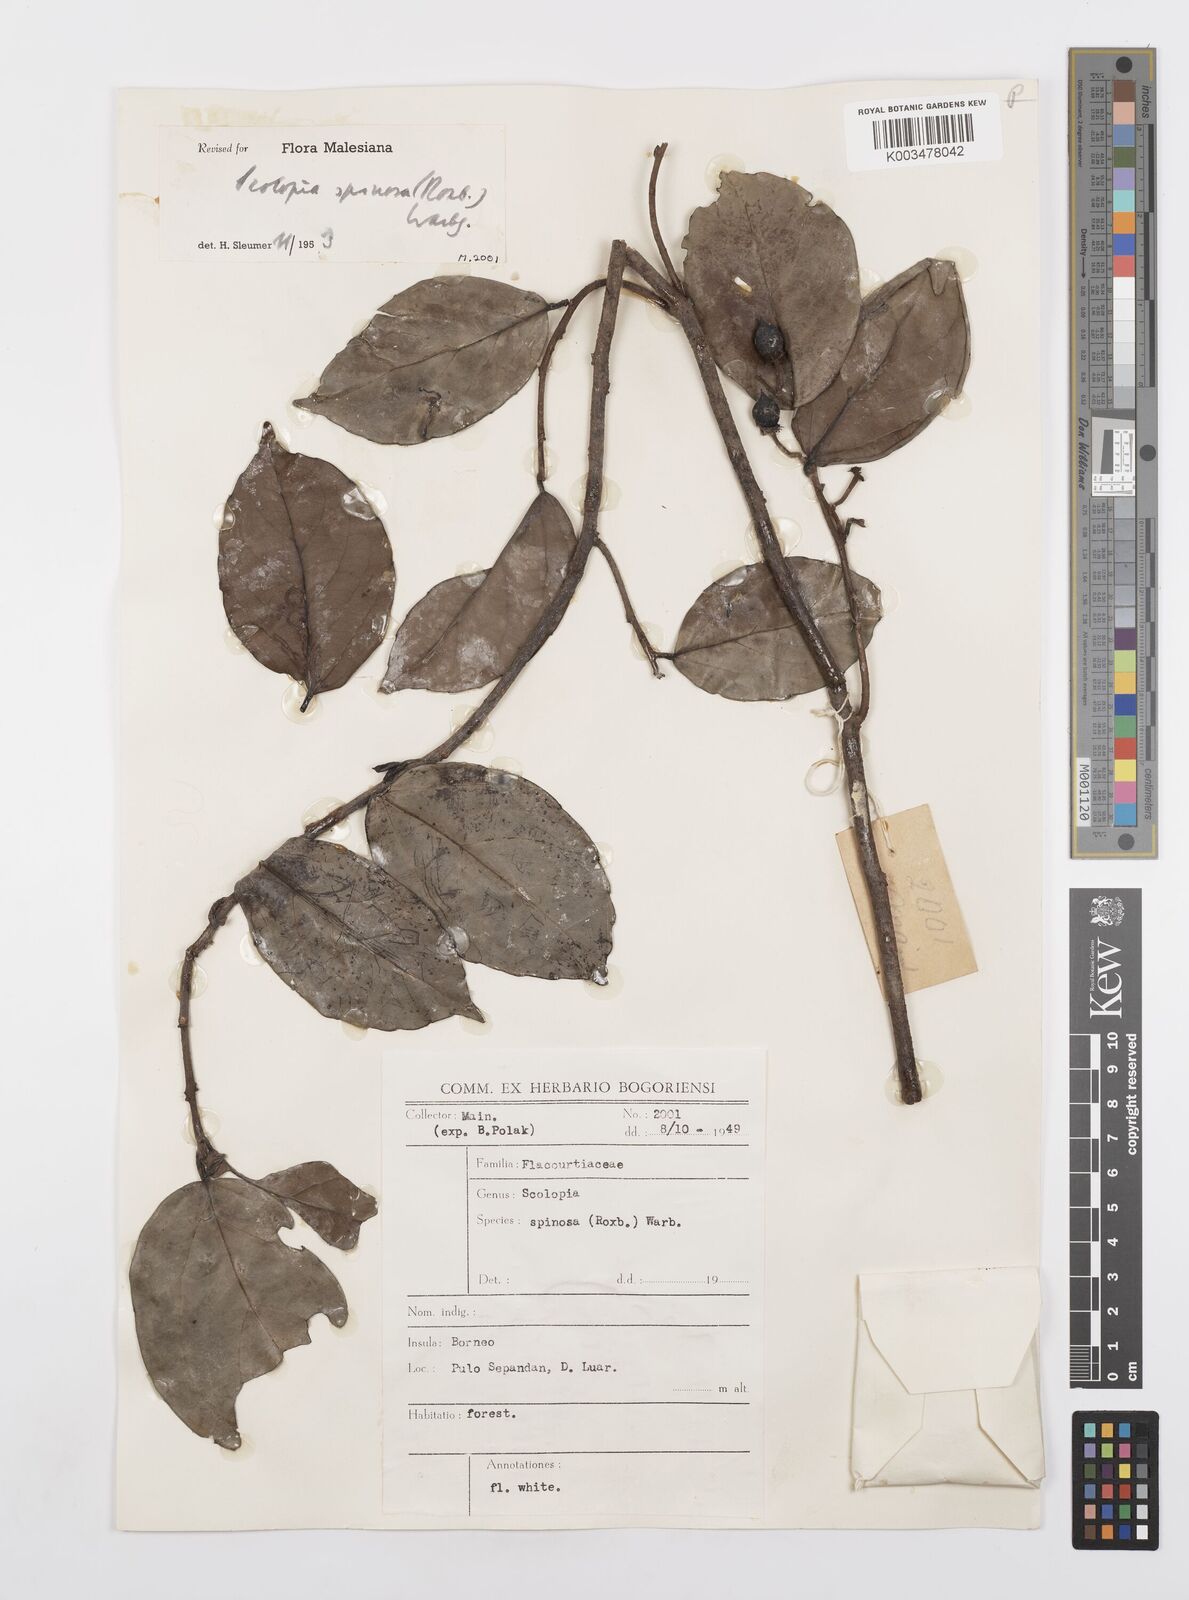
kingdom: Plantae
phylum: Tracheophyta
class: Magnoliopsida
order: Malpighiales
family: Salicaceae
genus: Scolopia
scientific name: Scolopia spinosa
